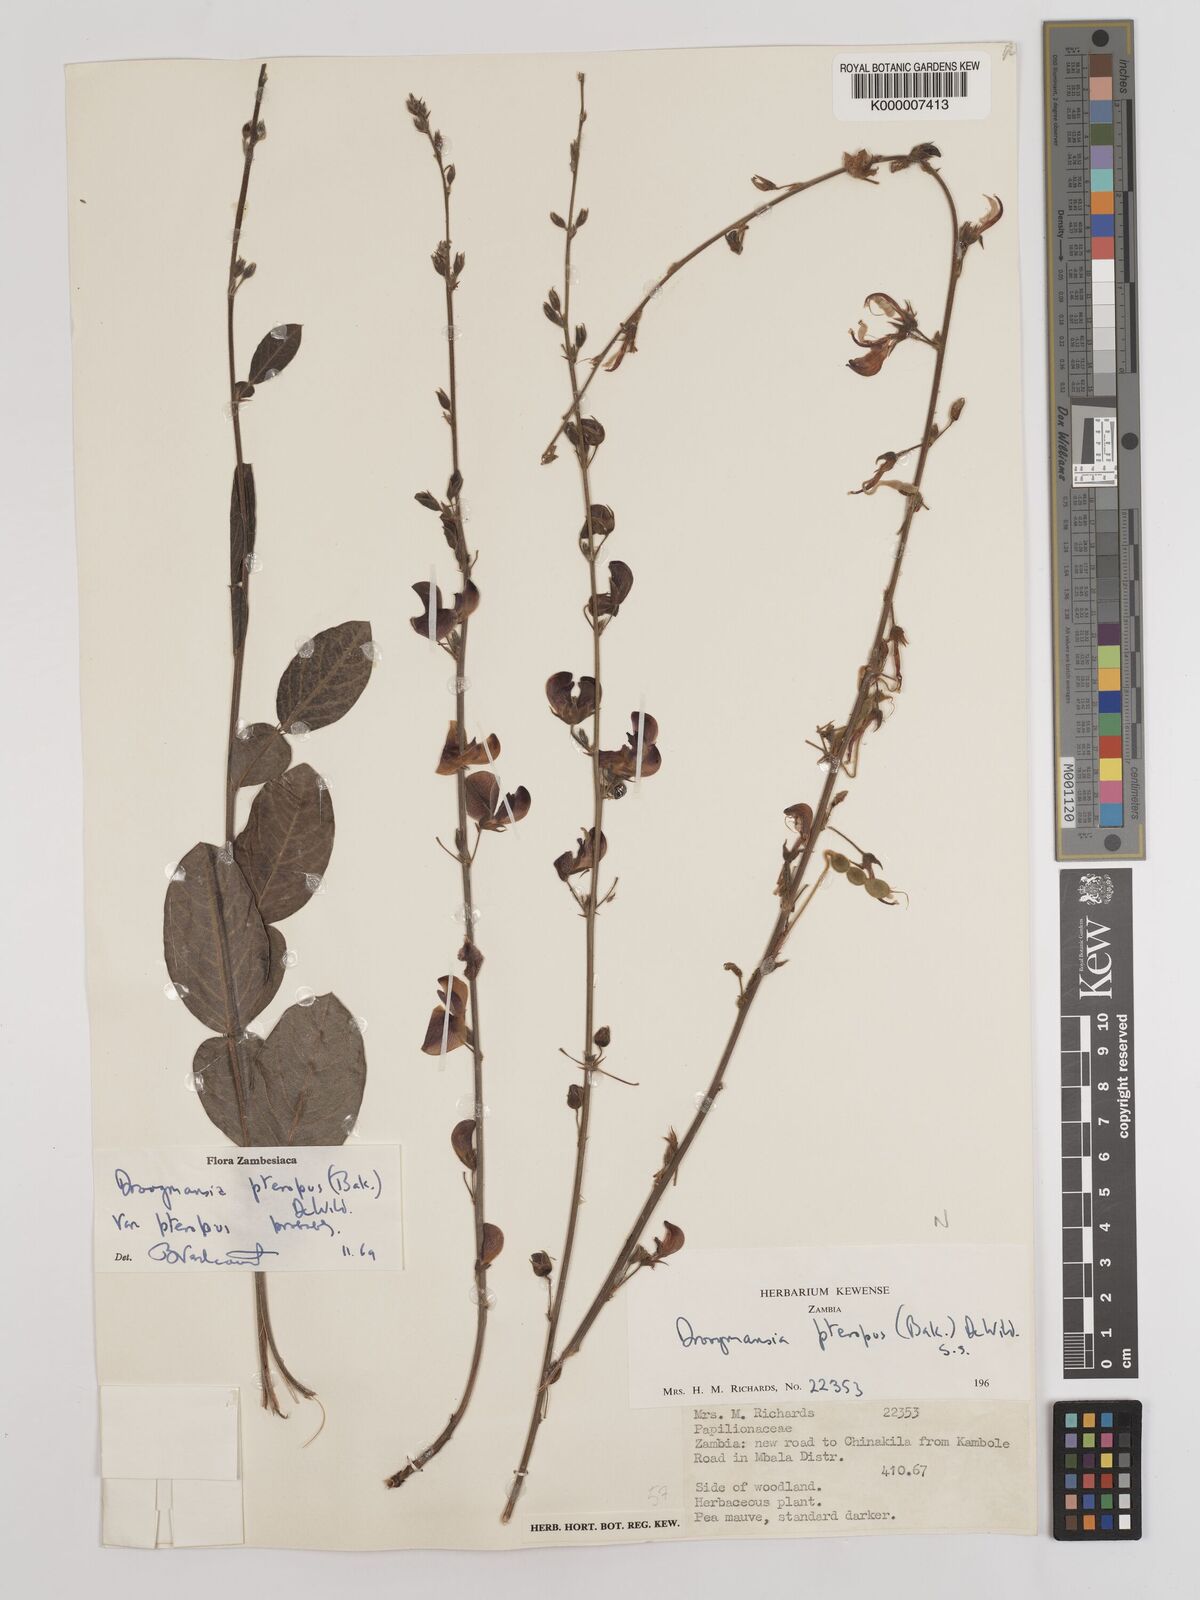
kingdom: Plantae
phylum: Tracheophyta
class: Magnoliopsida
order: Fabales
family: Fabaceae
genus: Droogmansia
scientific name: Droogmansia pteropus
